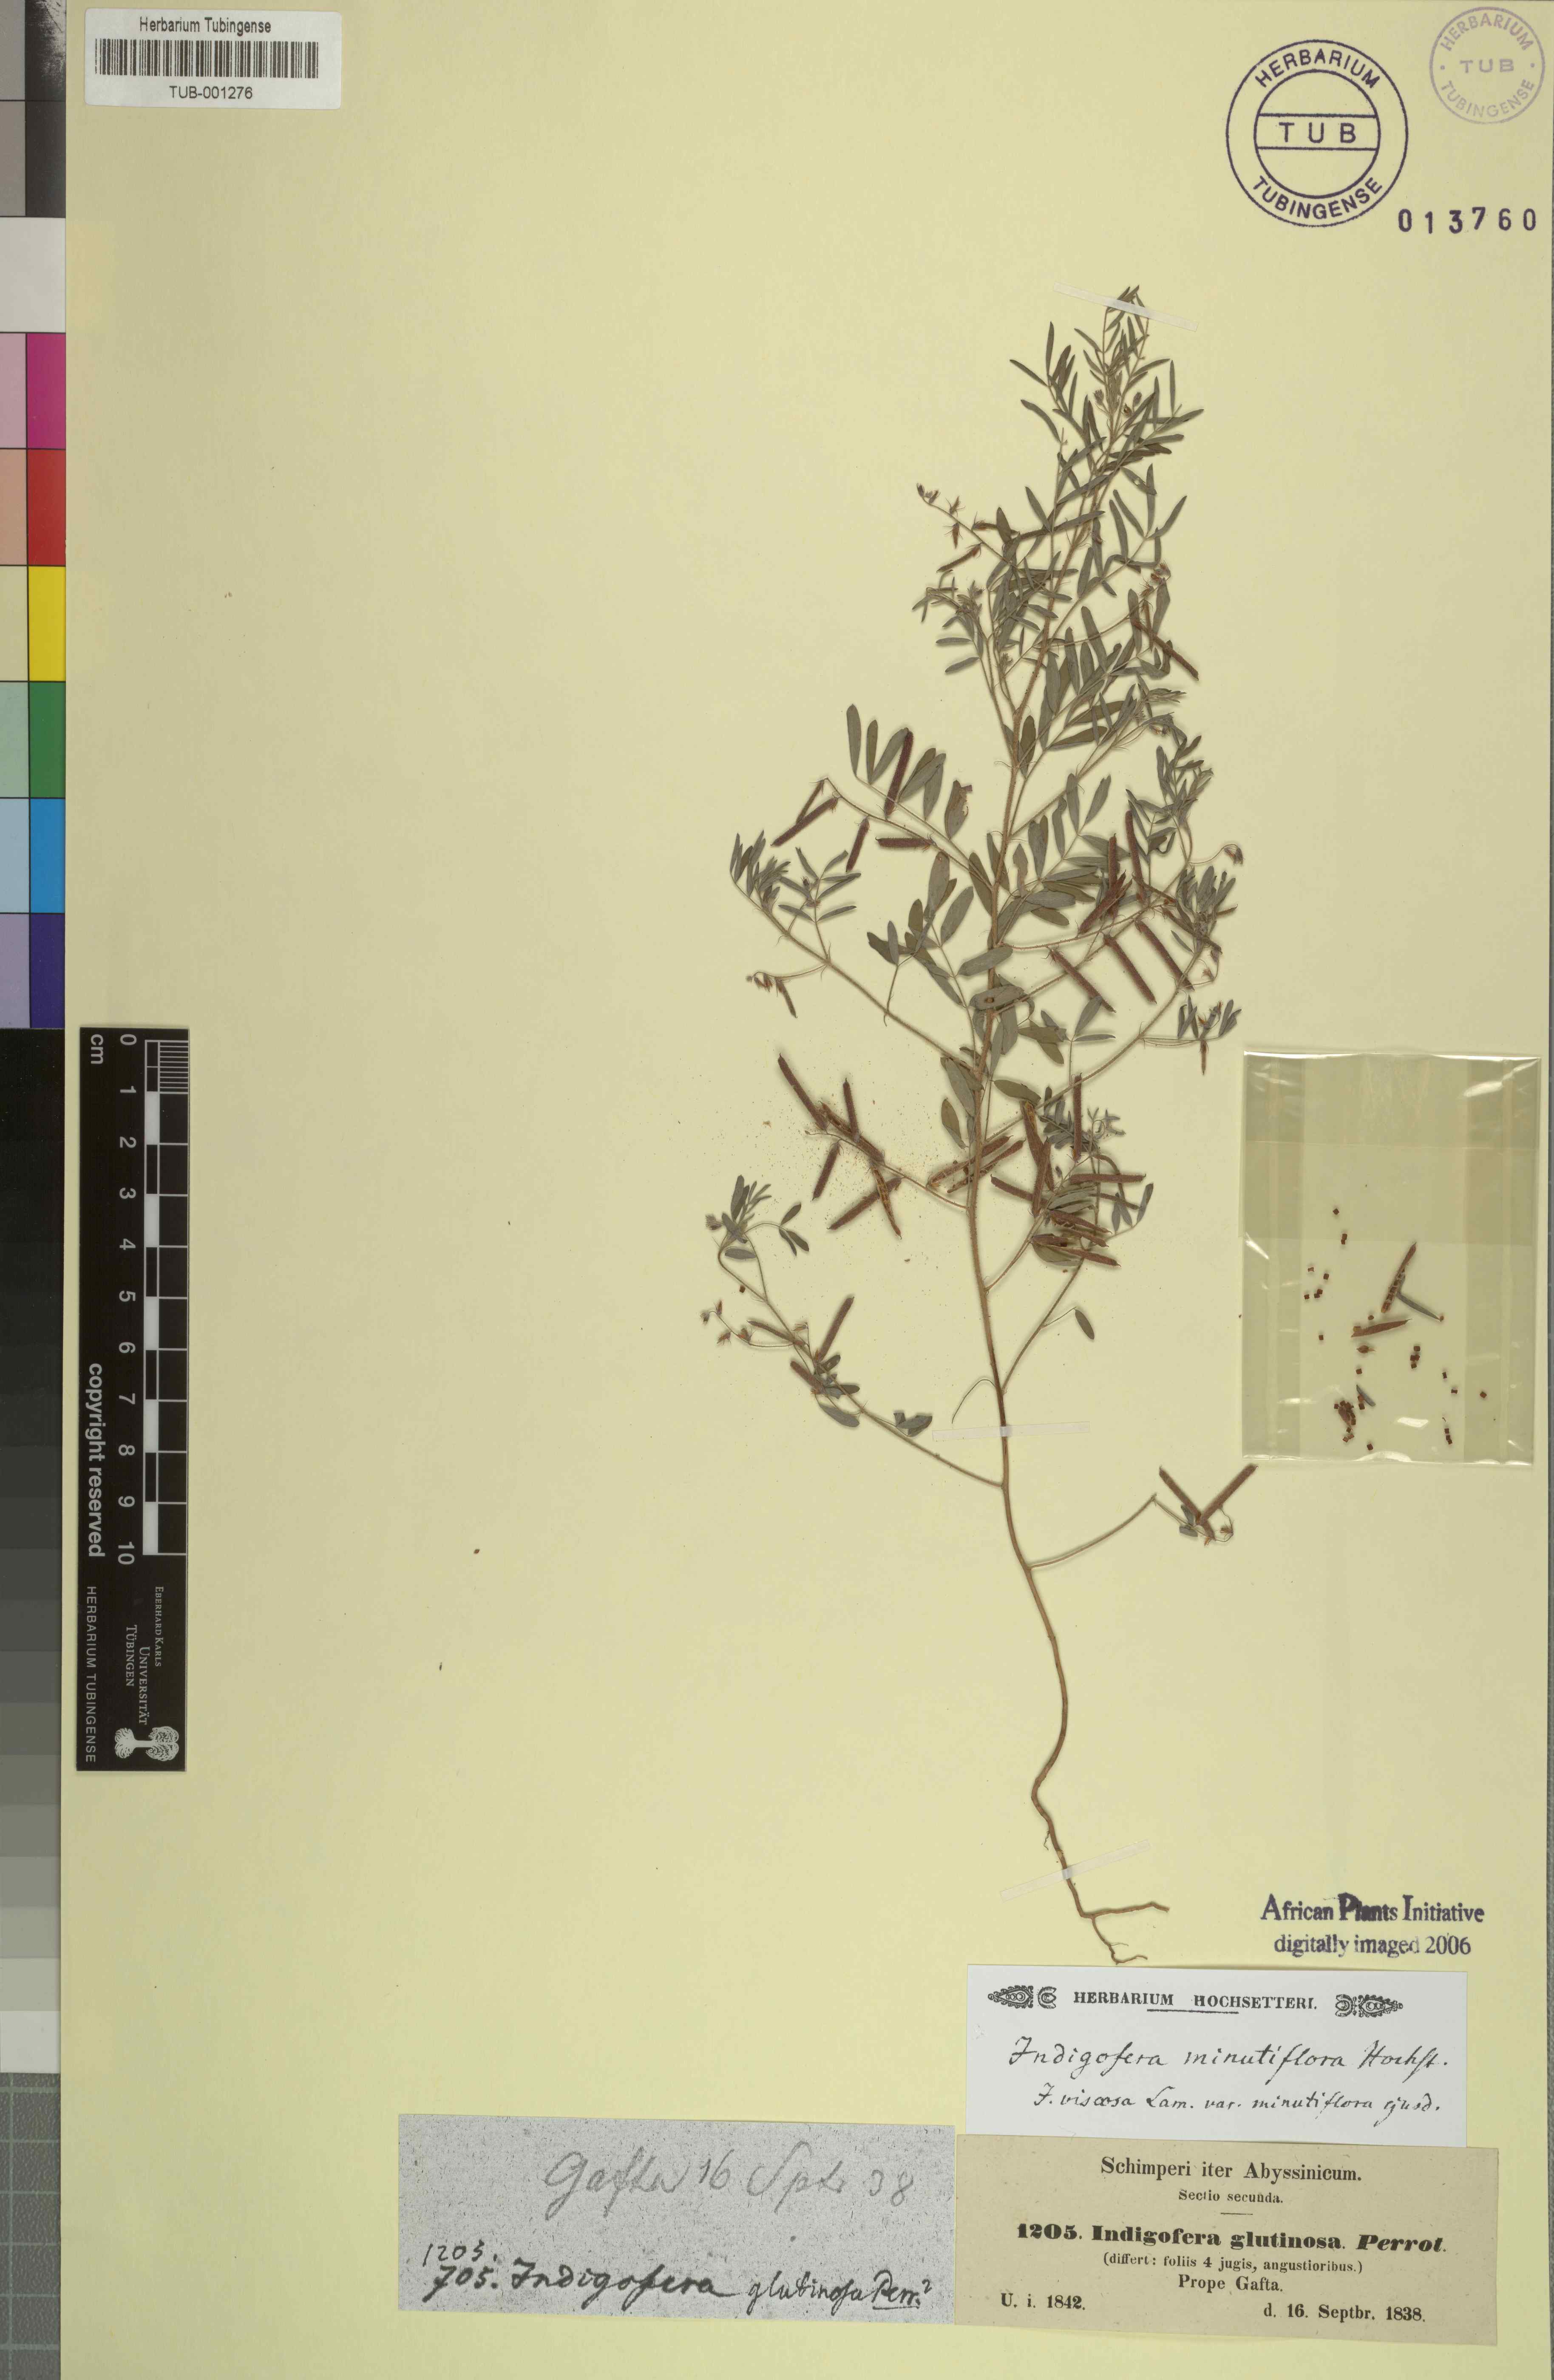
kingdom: Plantae
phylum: Tracheophyta
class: Magnoliopsida
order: Fabales
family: Fabaceae
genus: Indigofera
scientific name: Indigofera colutea
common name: Rusty indigo
